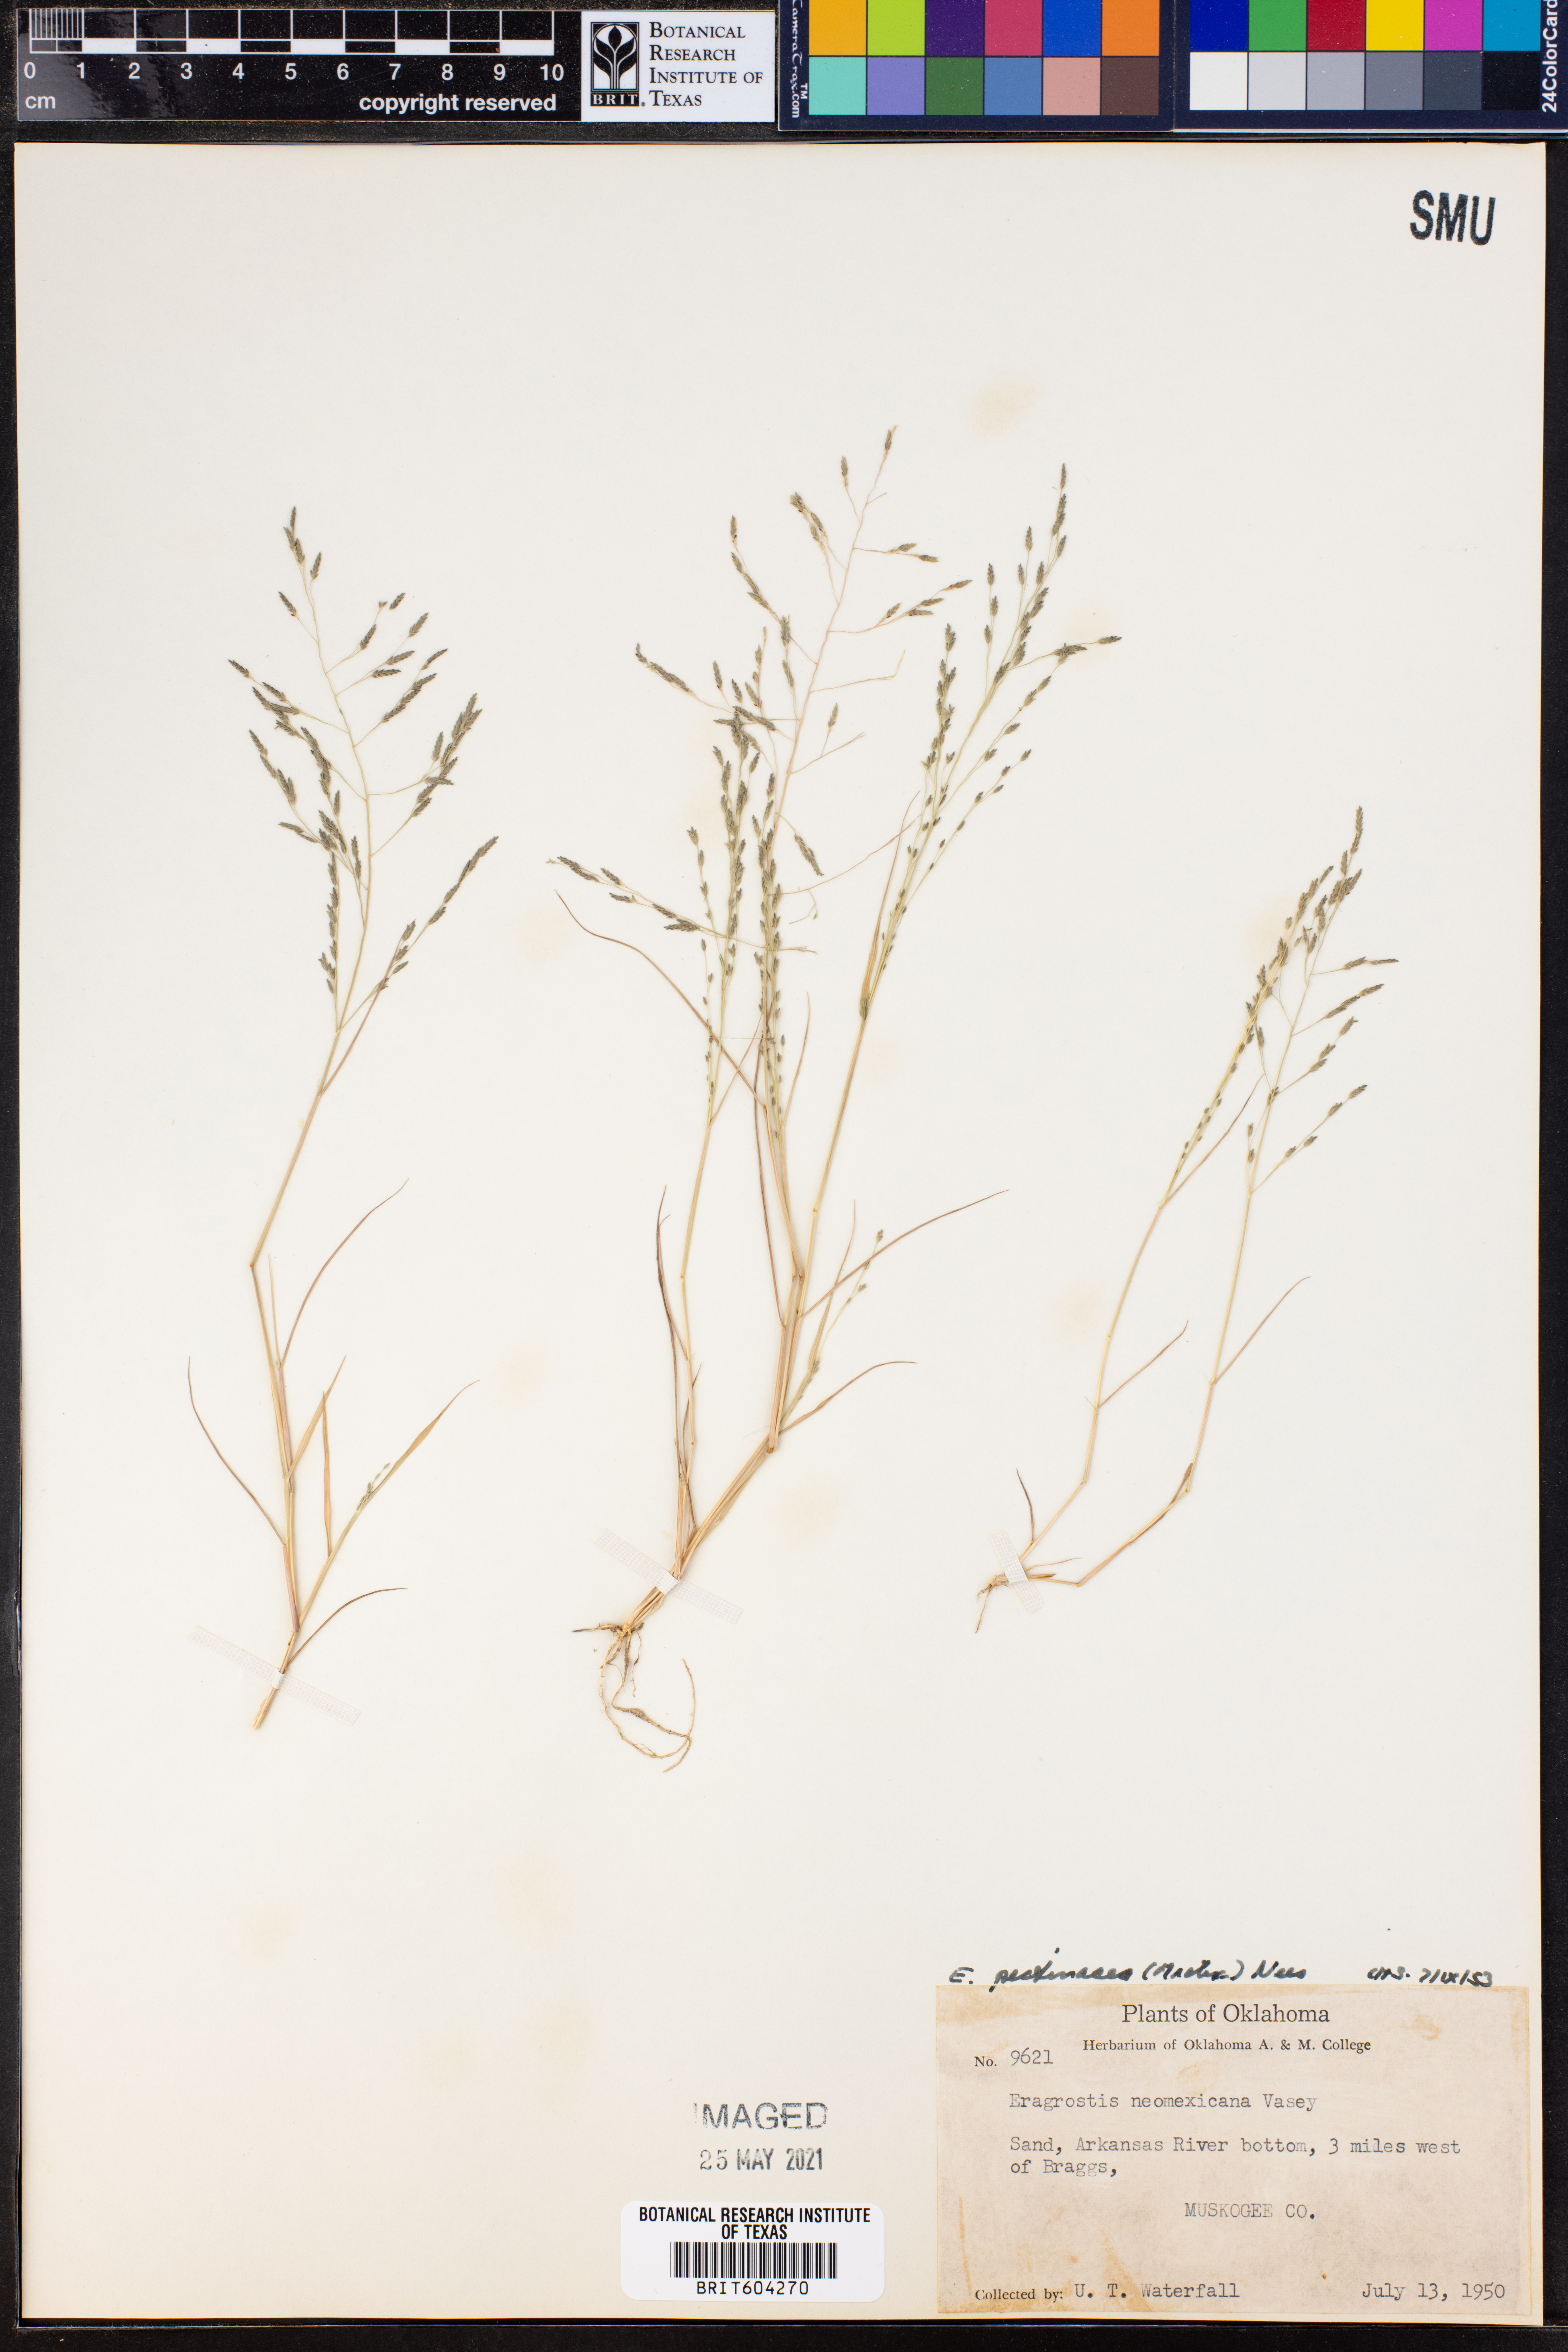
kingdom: Plantae
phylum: Tracheophyta
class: Liliopsida
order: Poales
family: Poaceae
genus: Eragrostis
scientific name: Eragrostis pectinacea
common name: Tufted lovegrass
